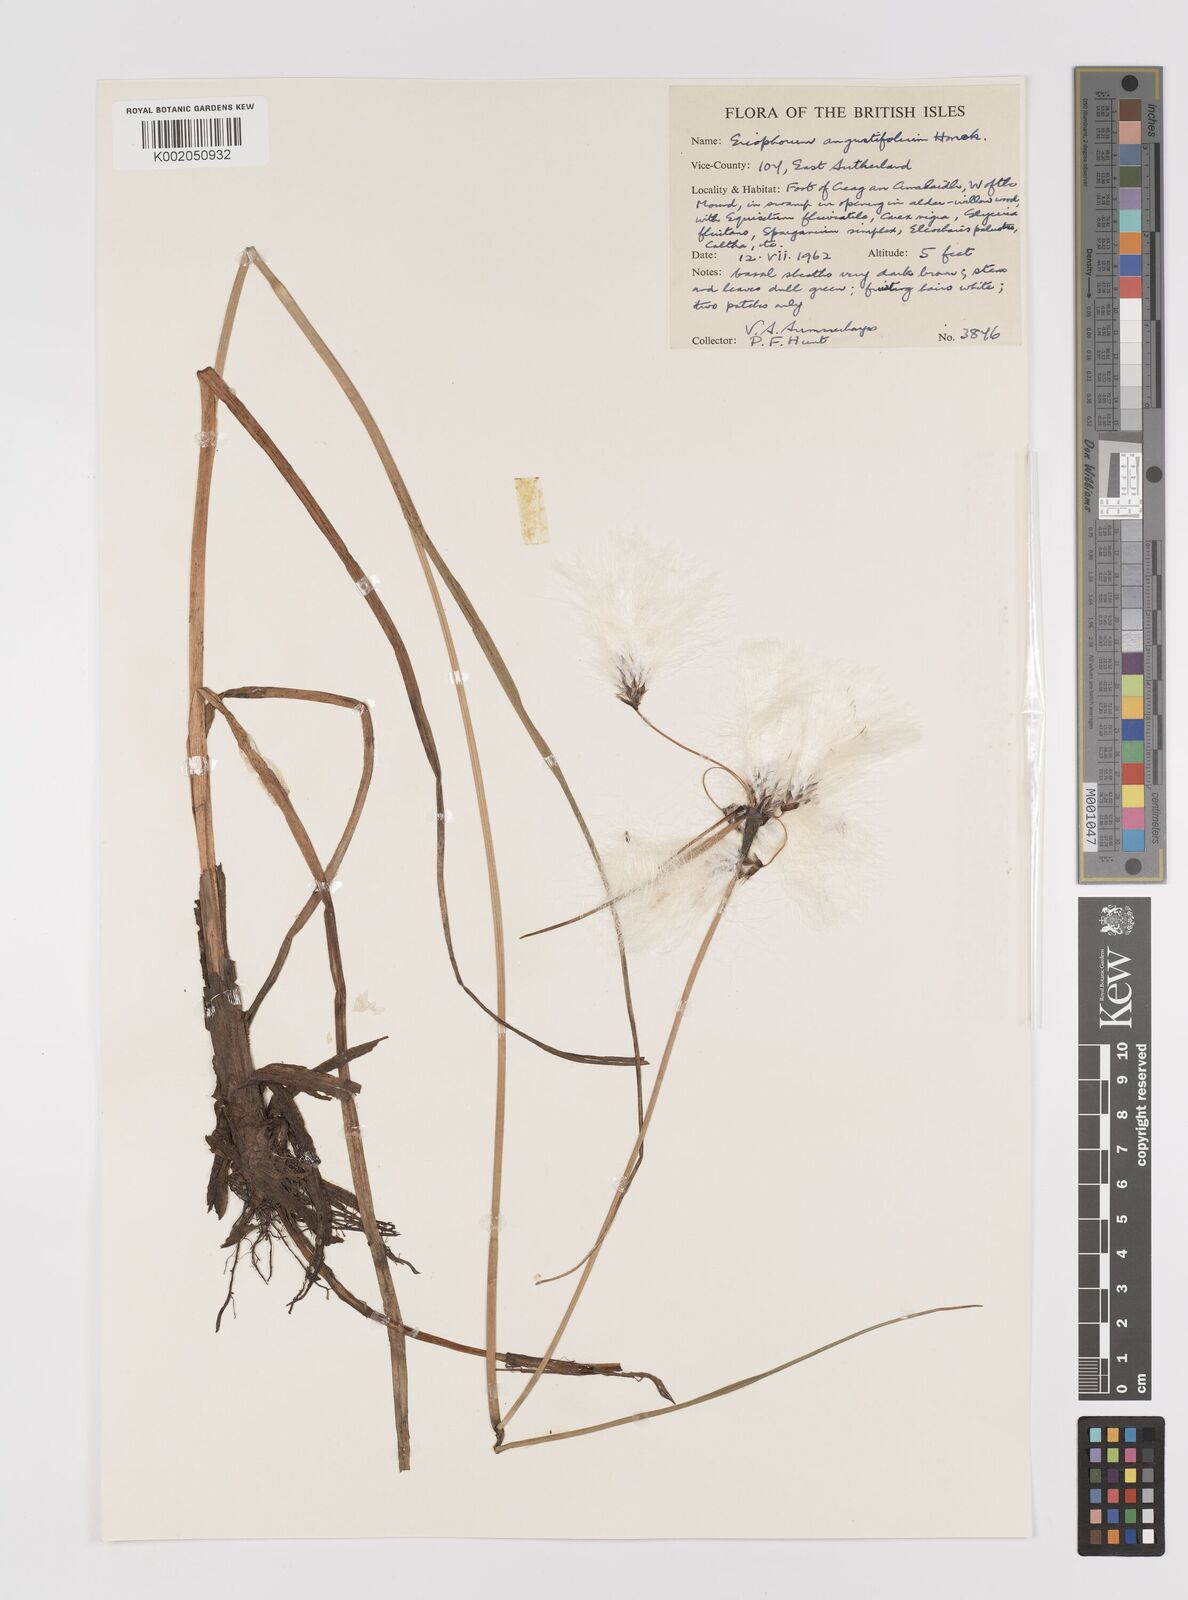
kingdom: Plantae
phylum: Tracheophyta
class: Liliopsida
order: Poales
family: Cyperaceae
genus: Eriophorum
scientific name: Eriophorum angustifolium
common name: Common cottongrass
